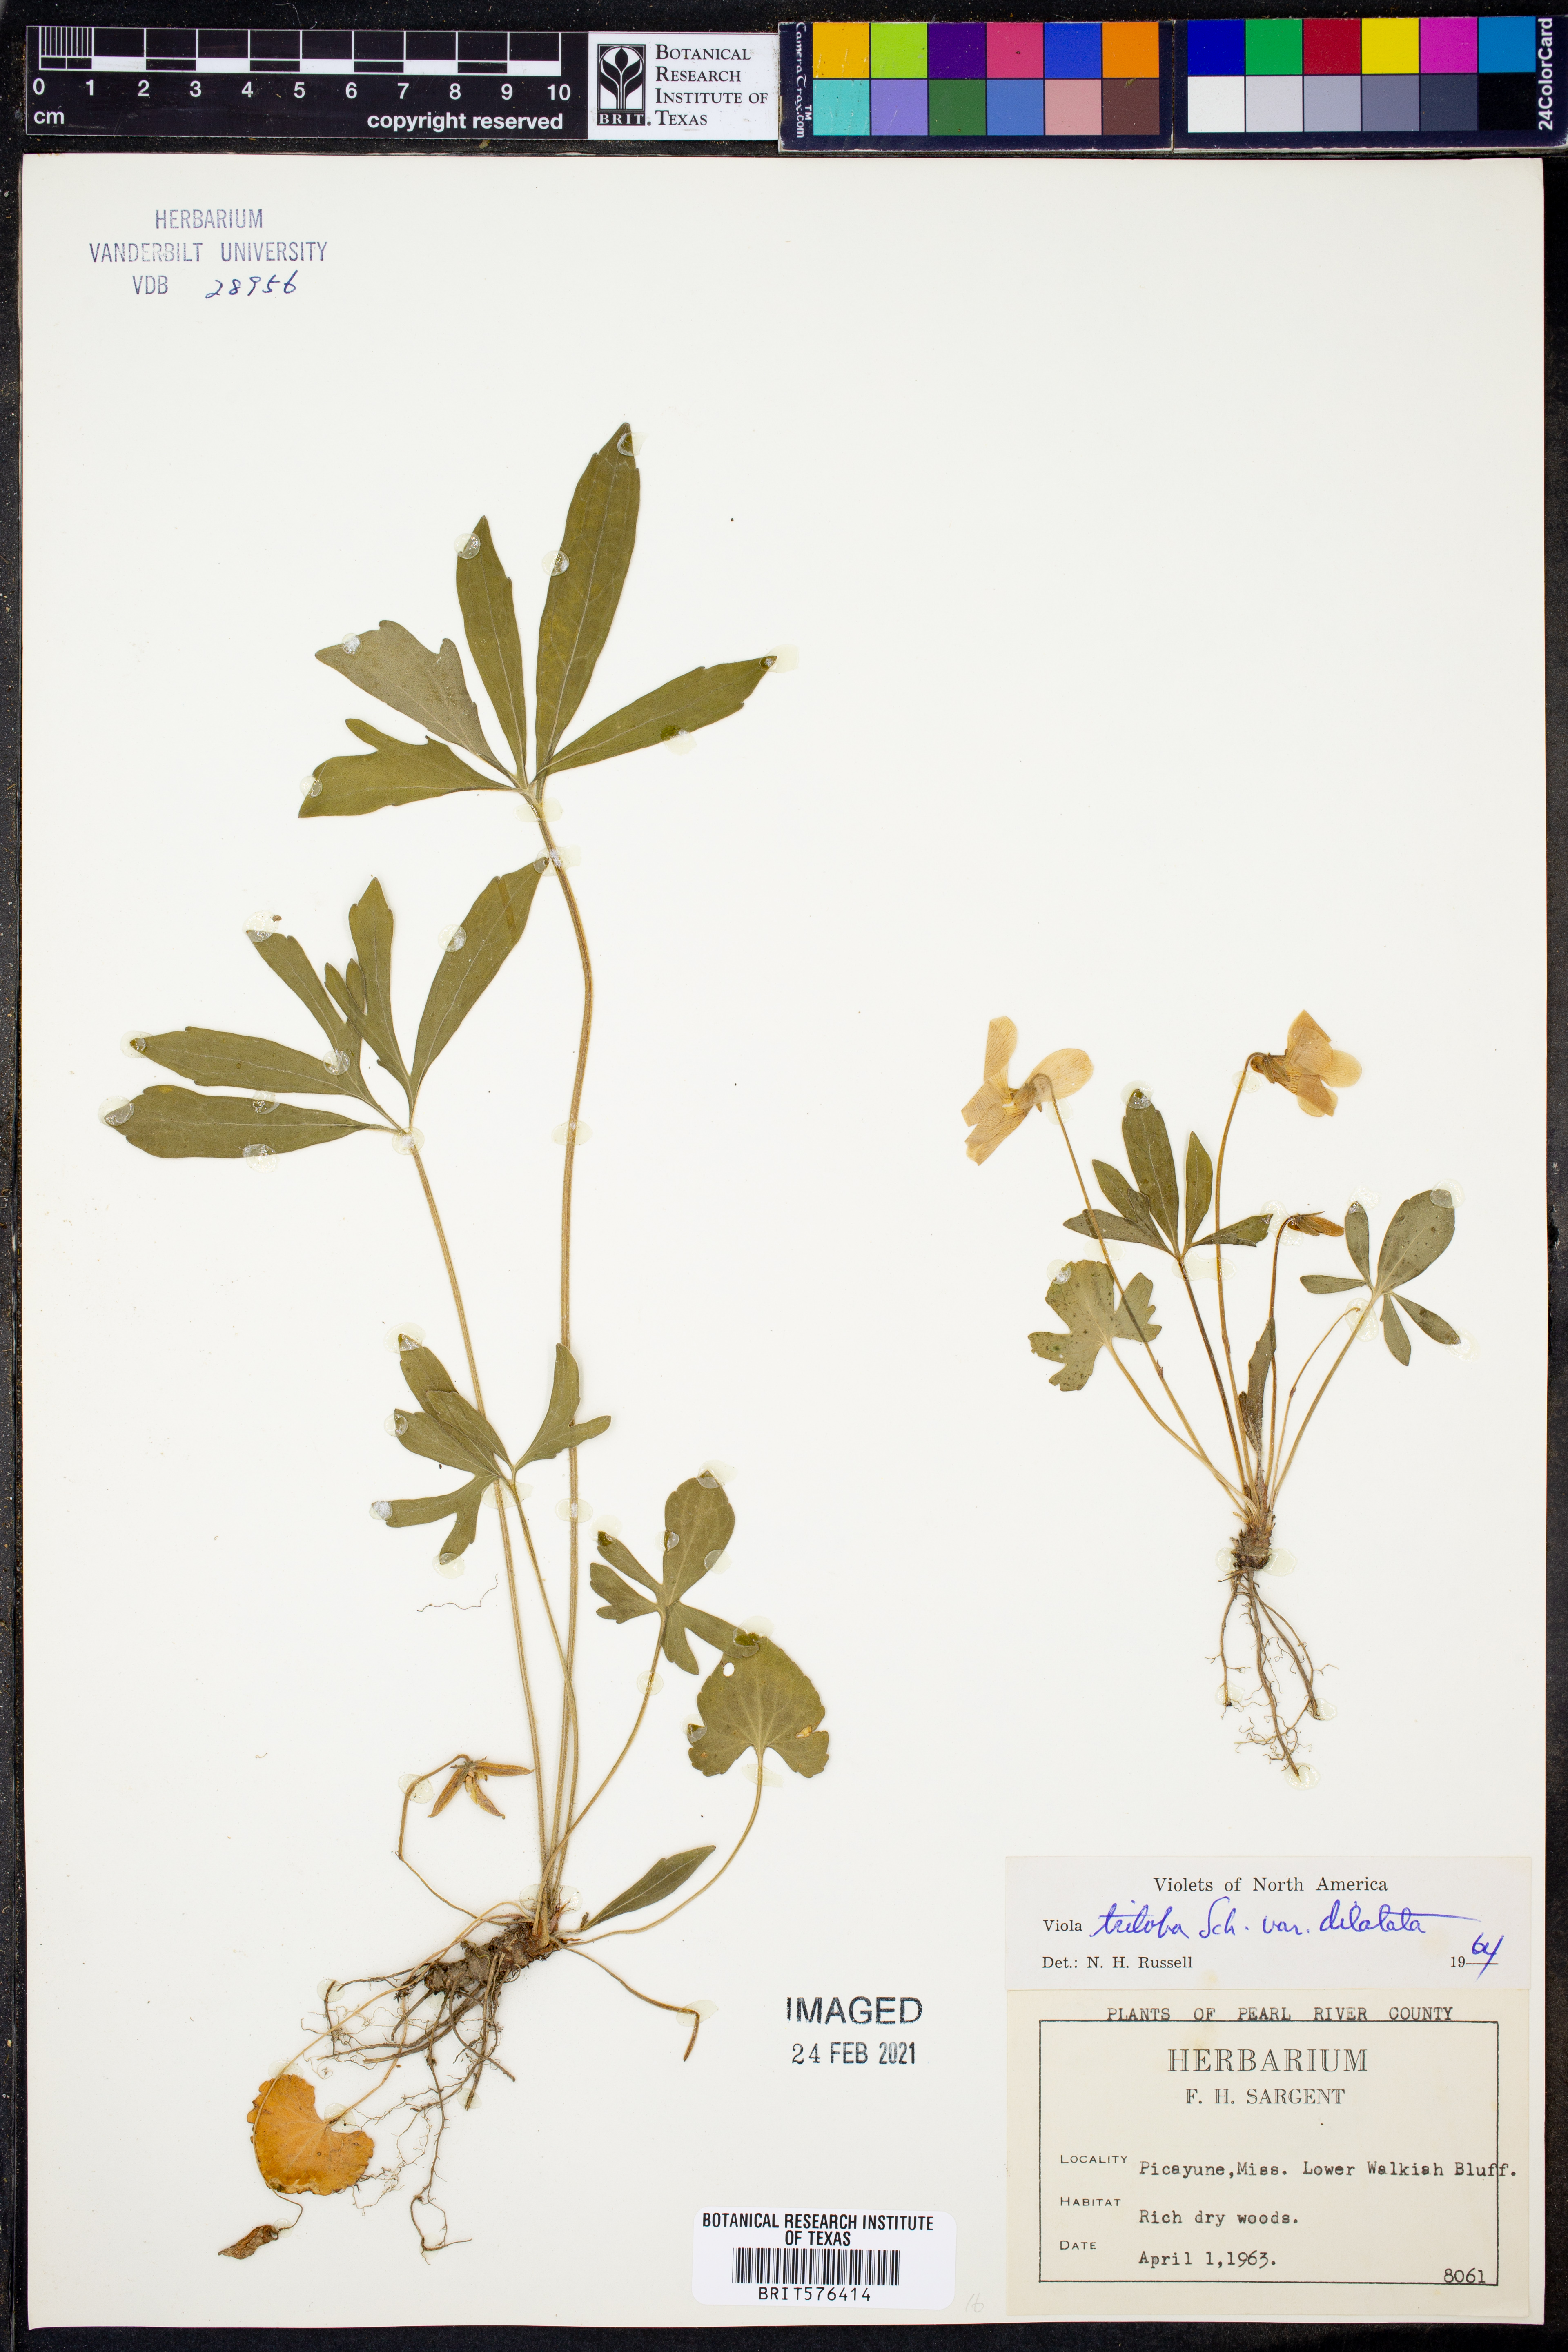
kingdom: Plantae
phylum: Tracheophyta
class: Magnoliopsida
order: Malpighiales
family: Violaceae
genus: Viola
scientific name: Viola palmata
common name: Early blue violet
